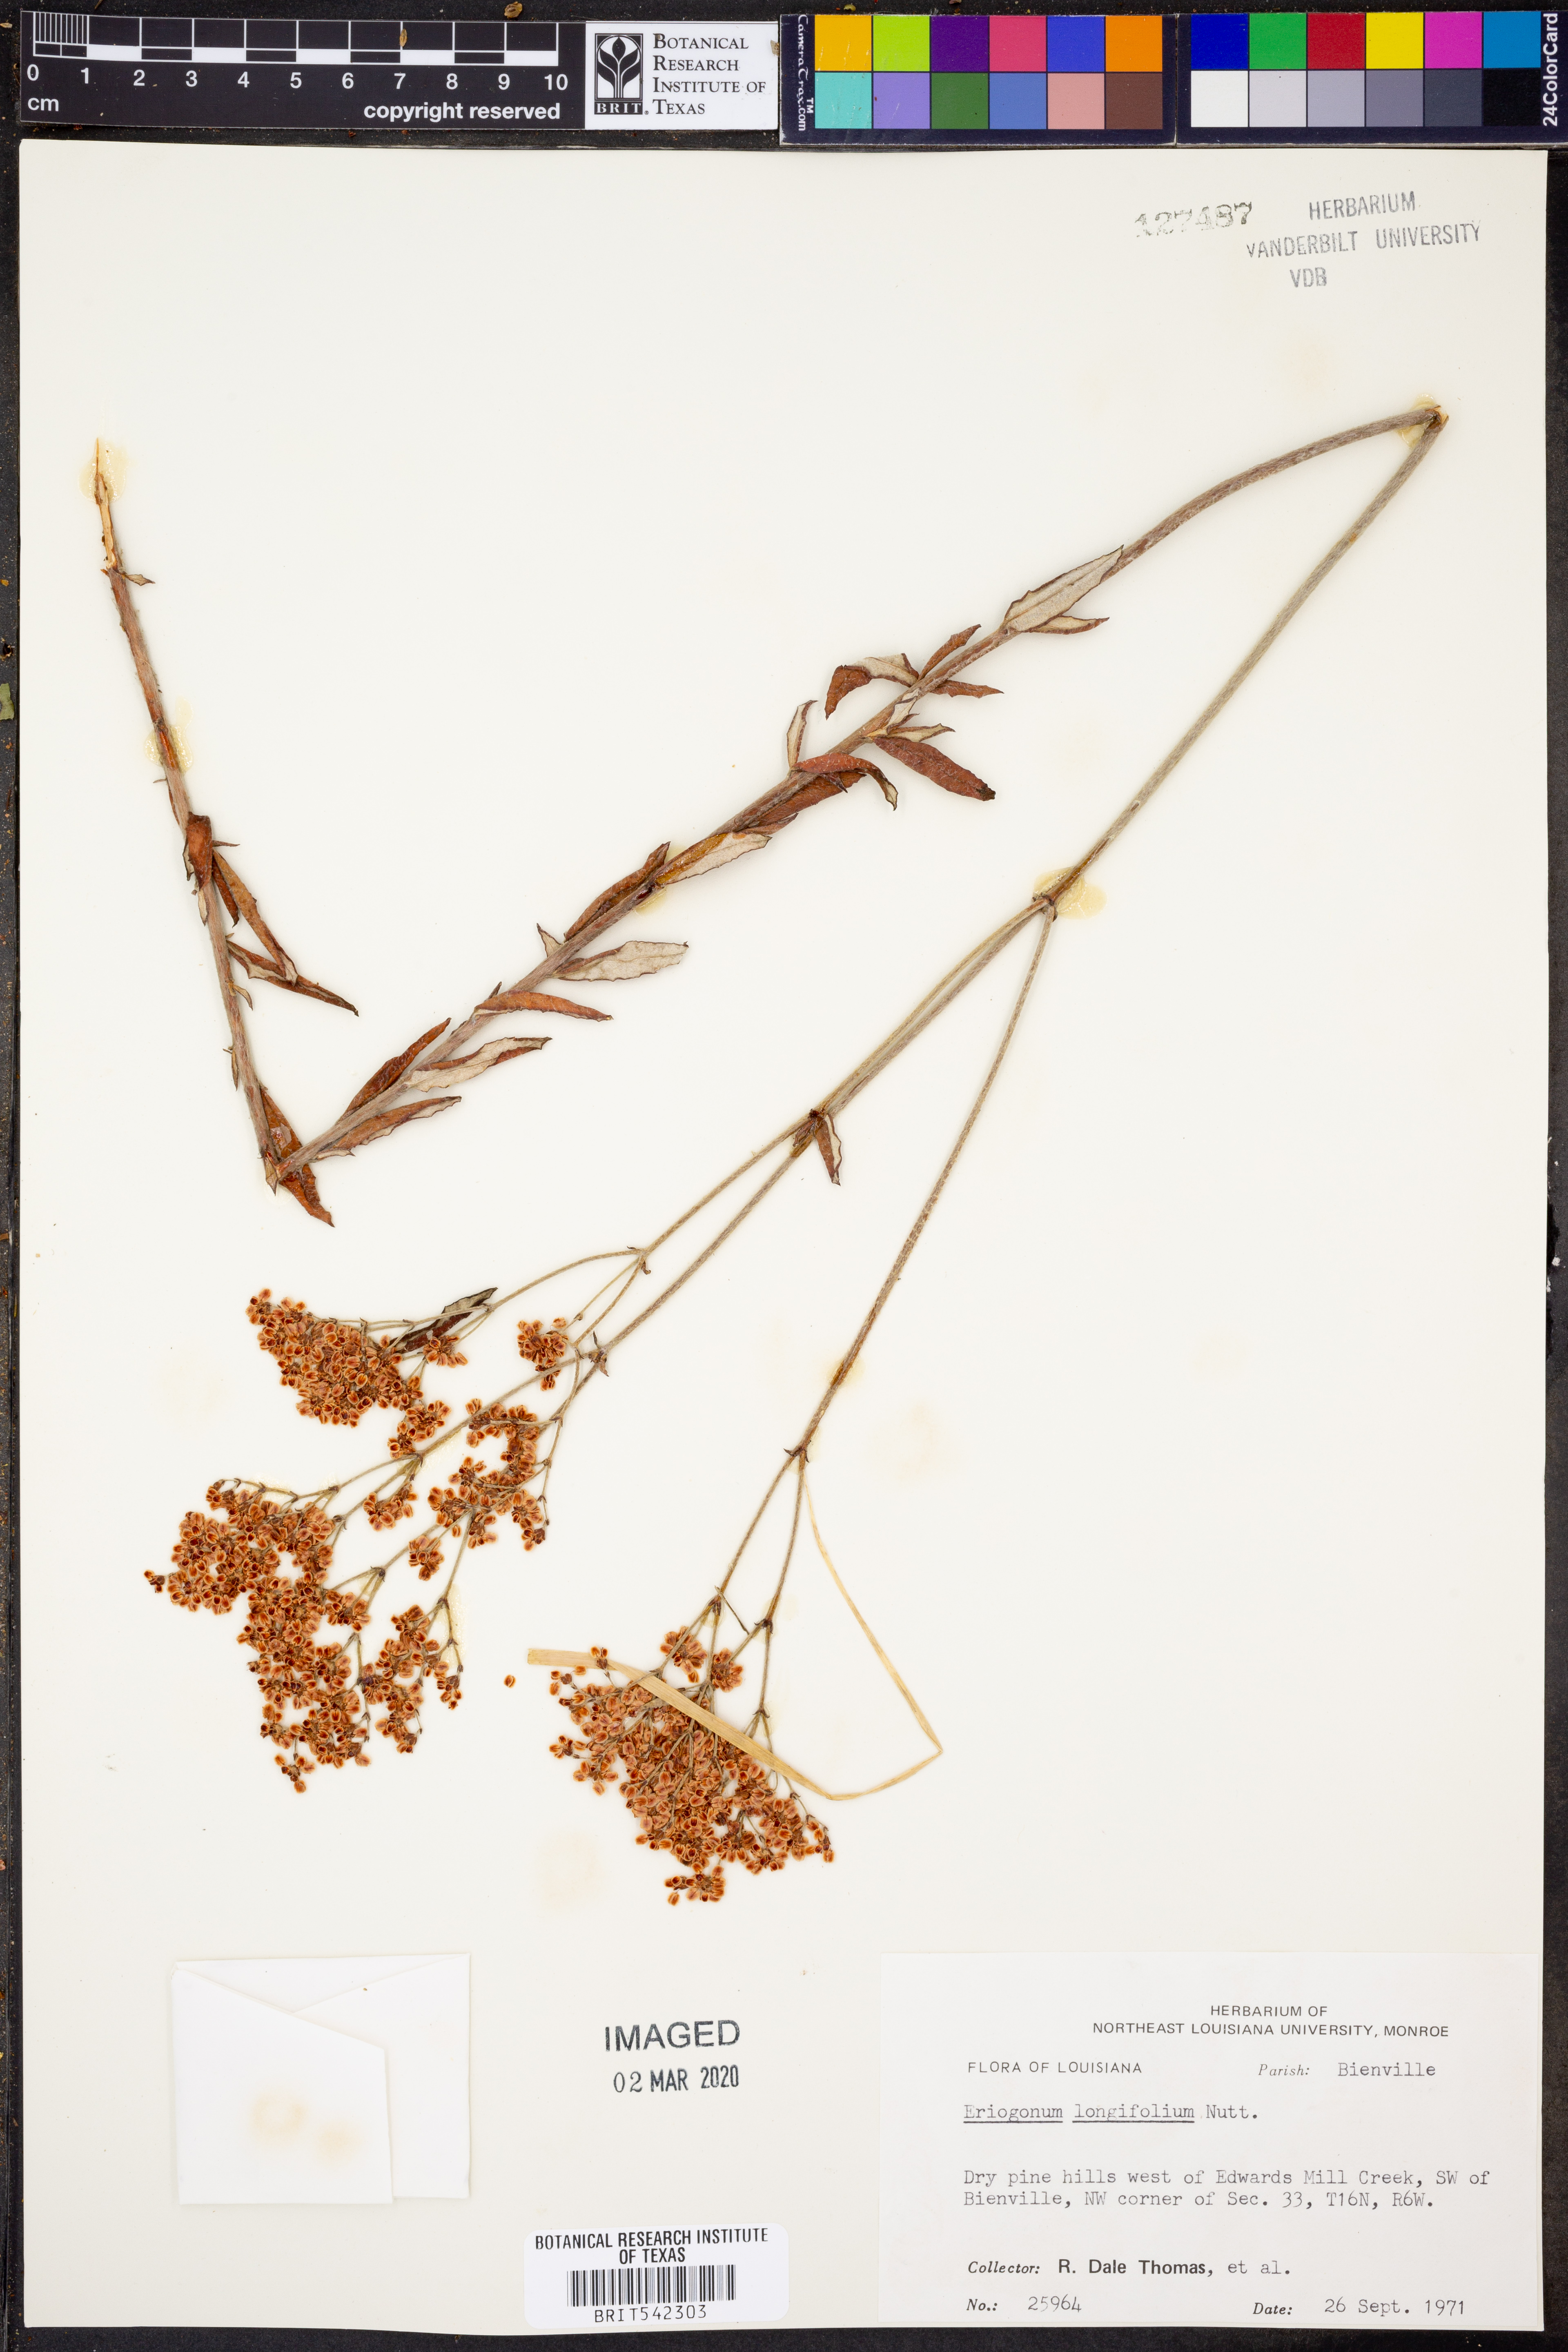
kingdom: Plantae
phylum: Tracheophyta
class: Magnoliopsida
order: Caryophyllales
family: Polygonaceae
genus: Eriogonum
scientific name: Eriogonum longifolium
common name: Longleaf wild buckwheat
